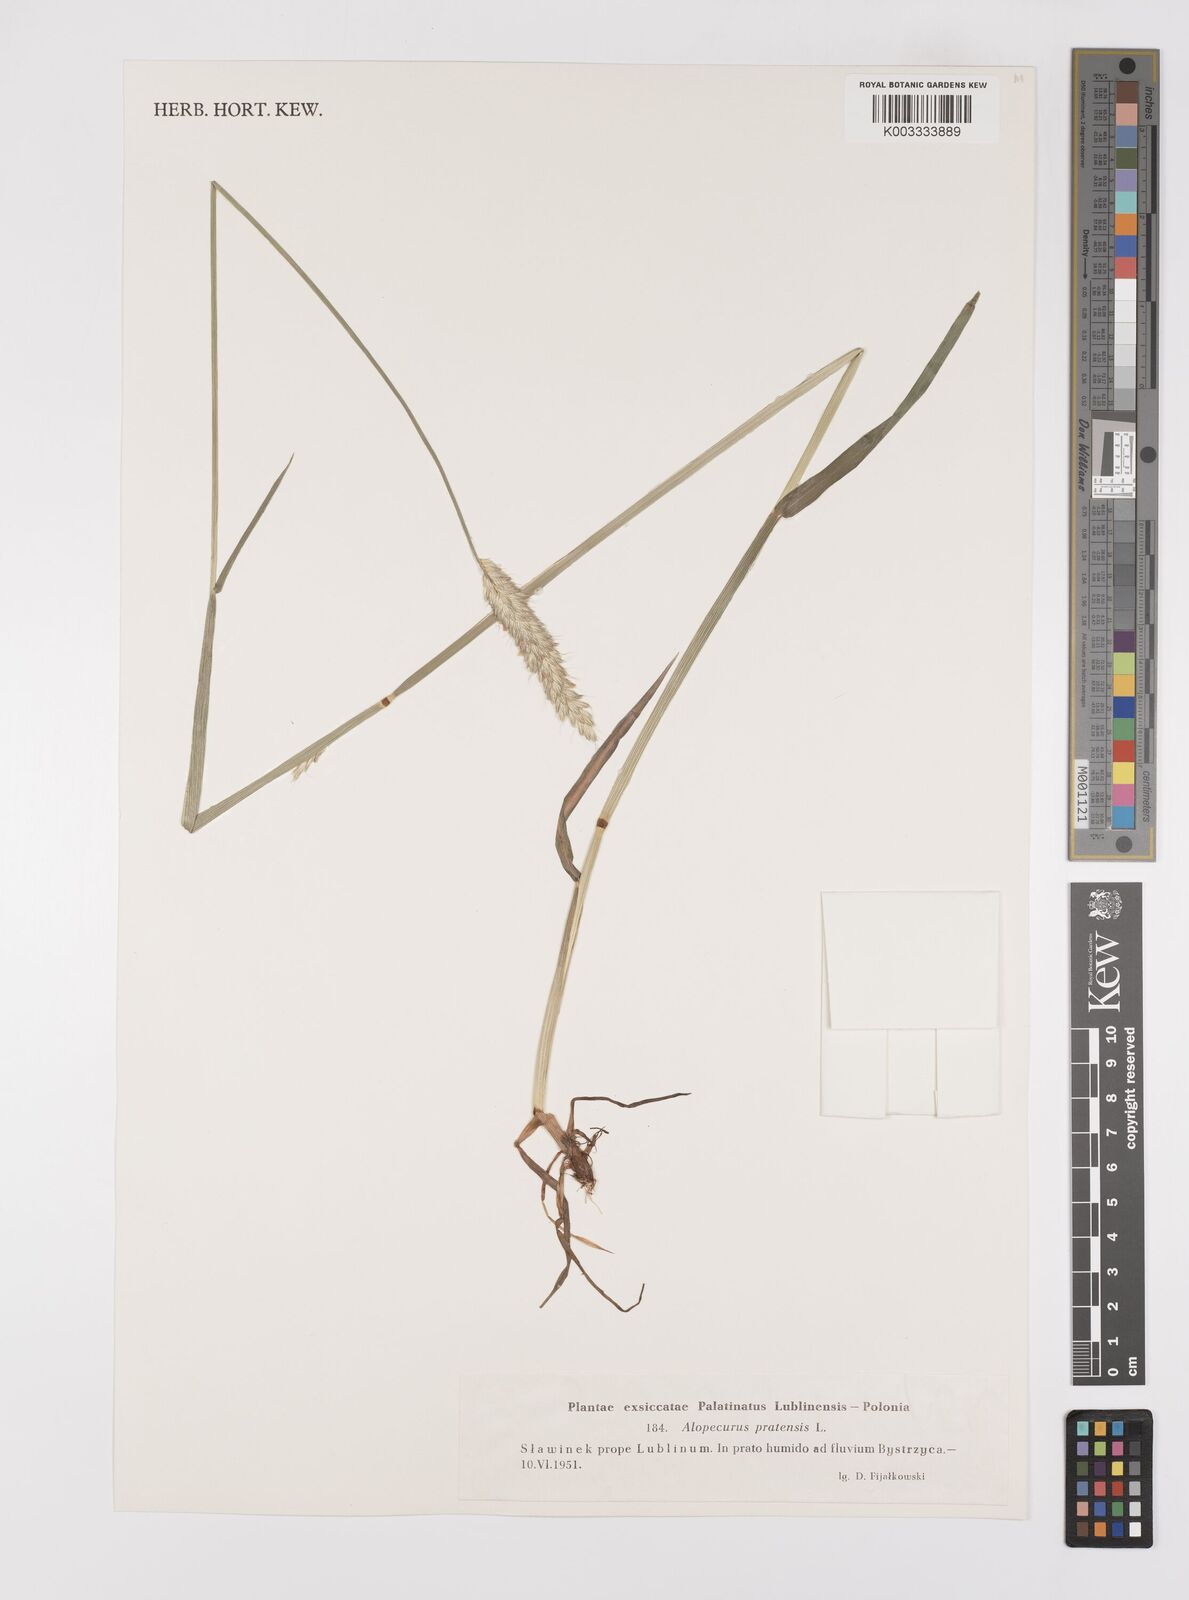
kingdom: Plantae
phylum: Tracheophyta
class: Liliopsida
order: Poales
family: Poaceae
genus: Alopecurus
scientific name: Alopecurus pratensis
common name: Meadow foxtail
